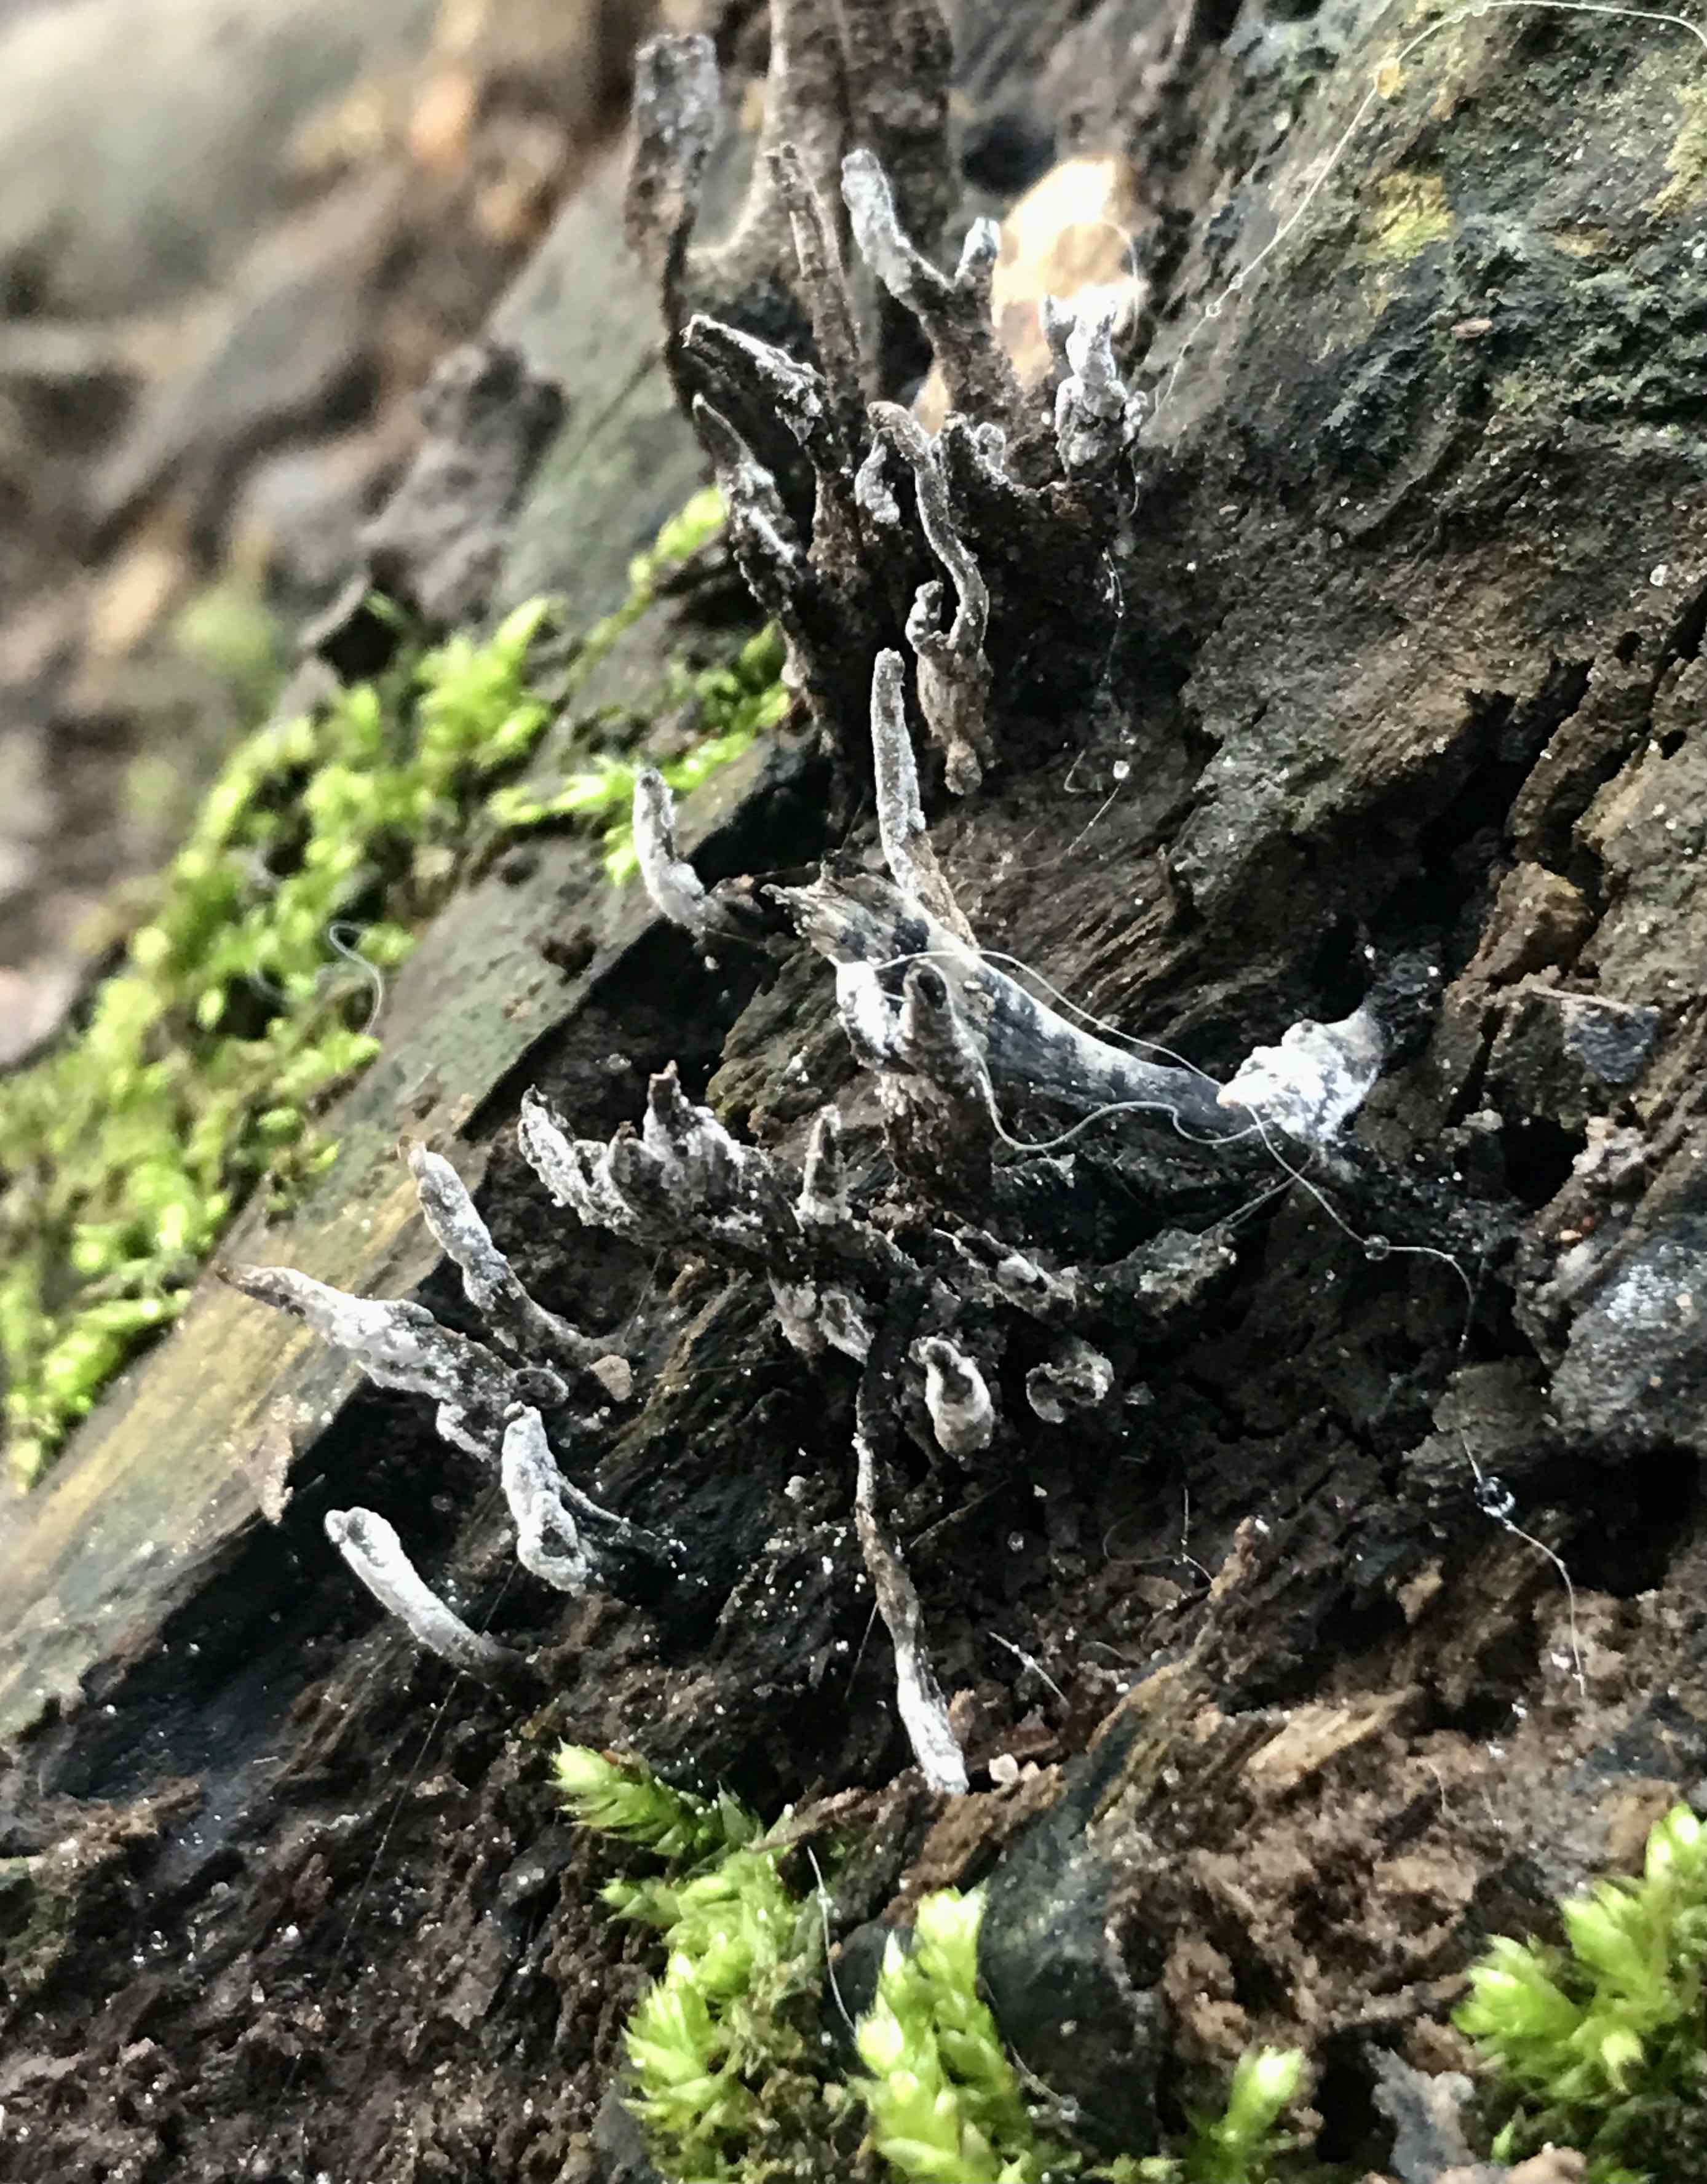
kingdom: Fungi
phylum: Ascomycota
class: Sordariomycetes
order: Xylariales
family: Xylariaceae
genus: Xylaria
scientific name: Xylaria hypoxylon
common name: grenet stødsvamp
